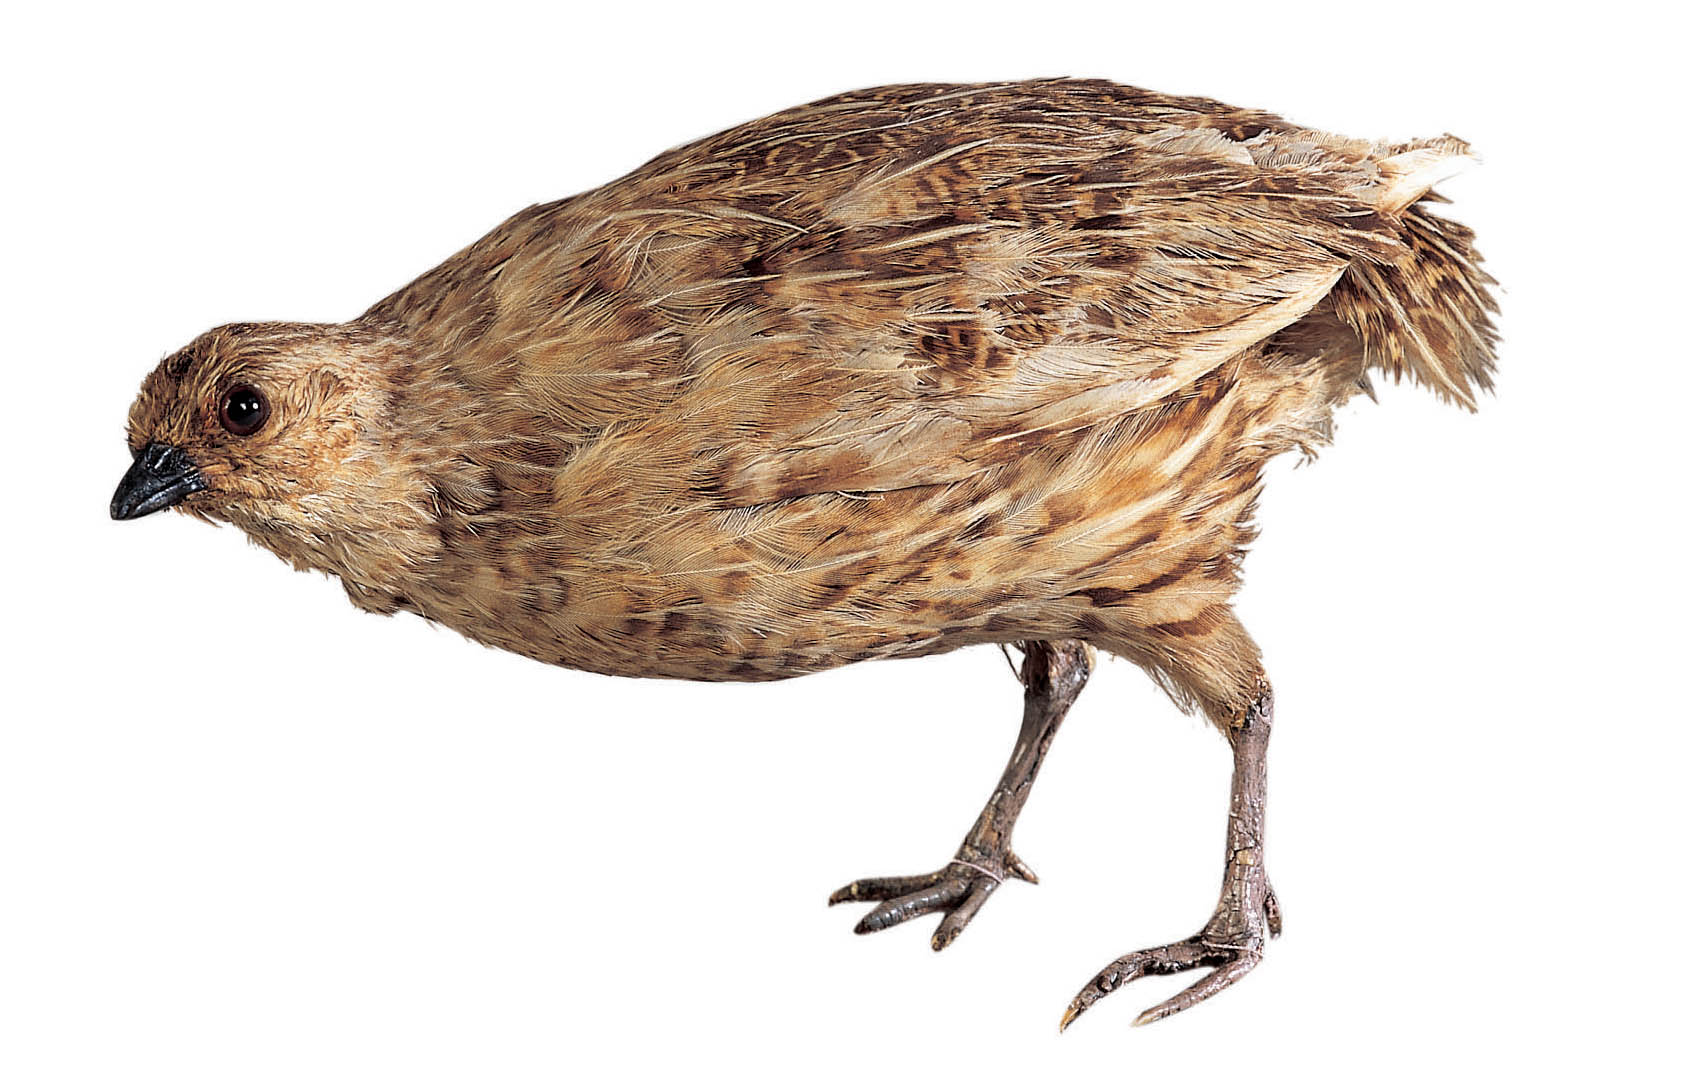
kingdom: Animalia
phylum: Chordata
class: Aves
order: Galliformes
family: Phasianidae
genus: Coturnix
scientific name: Coturnix novaezelandiae
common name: New zealand quail
